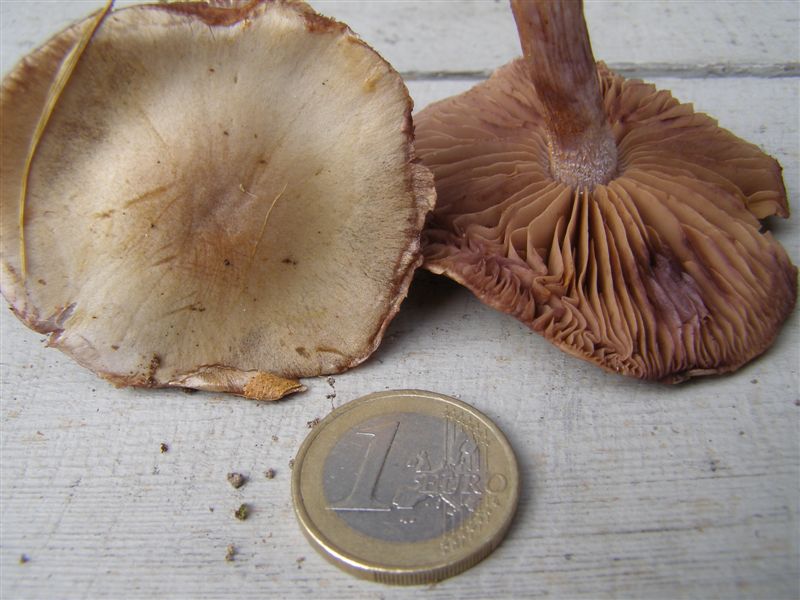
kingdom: Fungi
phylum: Basidiomycota
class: Agaricomycetes
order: Agaricales
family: Cortinariaceae
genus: Thaxterogaster
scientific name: Thaxterogaster subporphyropus
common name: ametyst-slørhat
